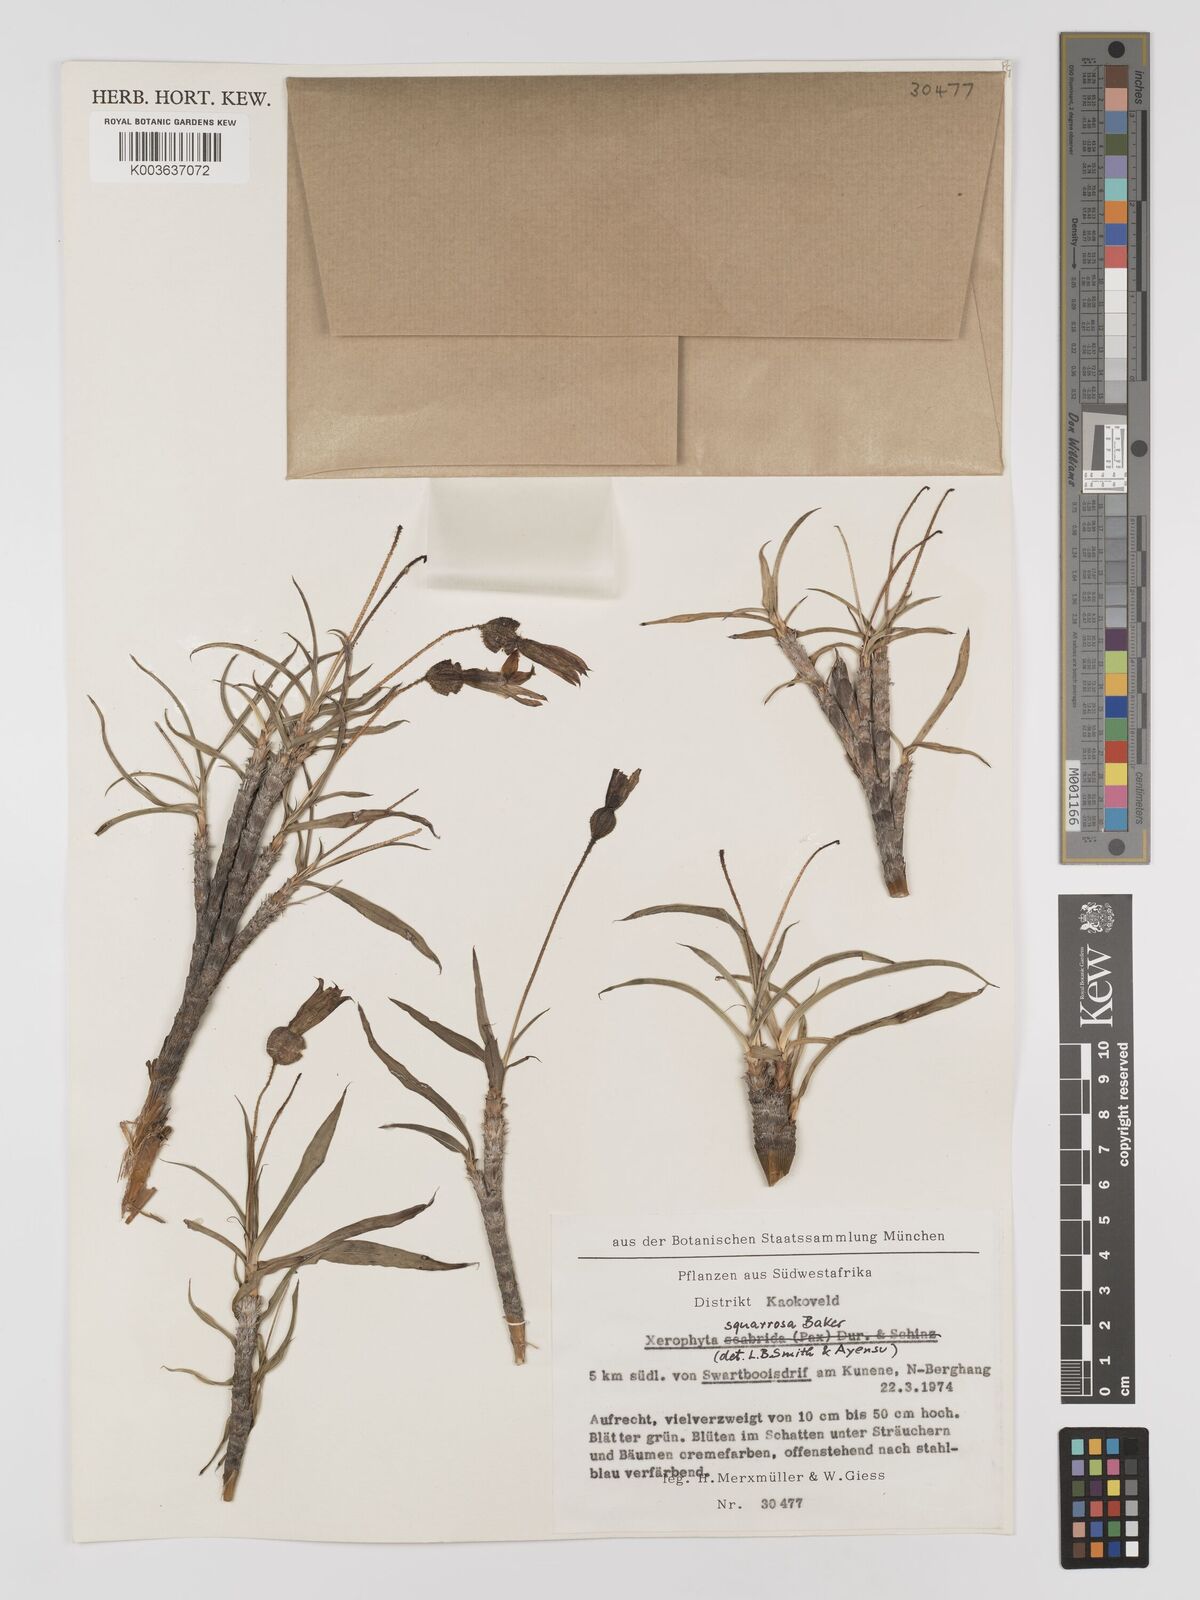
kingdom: Plantae
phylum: Tracheophyta
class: Liliopsida
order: Pandanales
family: Velloziaceae
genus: Xerophyta
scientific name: Xerophyta squarrosa
